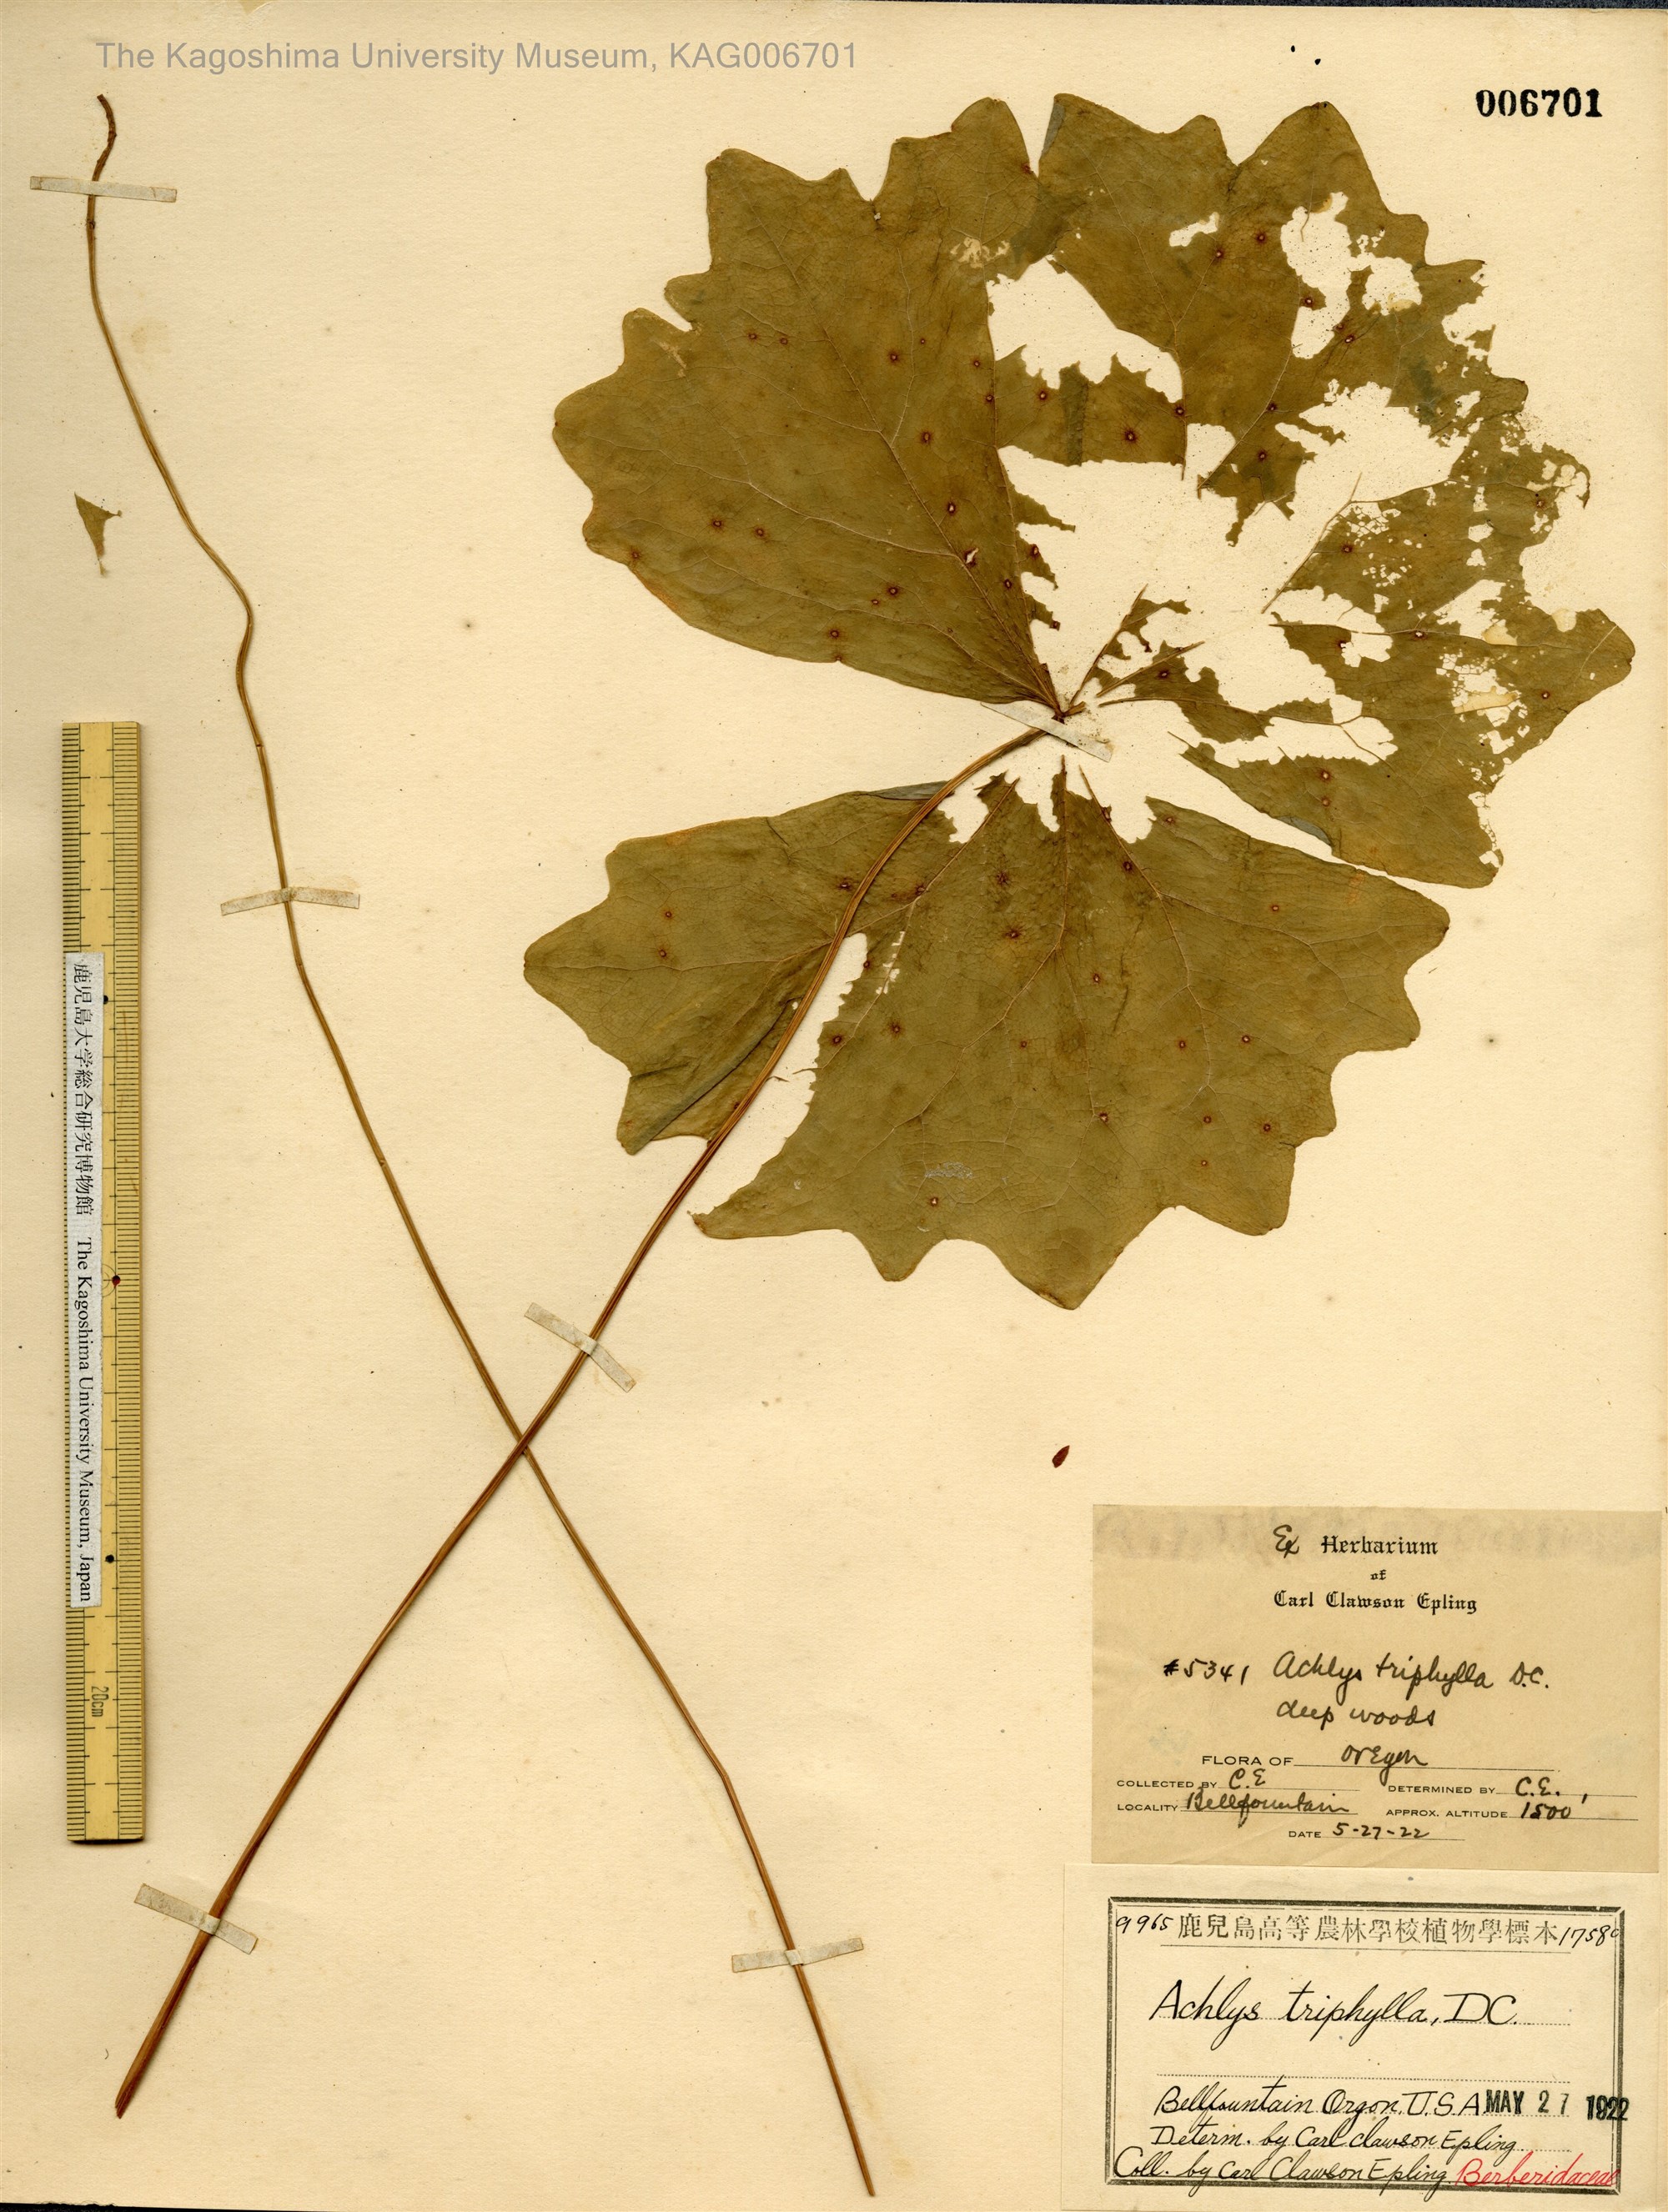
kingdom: Plantae
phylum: Tracheophyta
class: Magnoliopsida
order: Ranunculales
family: Berberidaceae
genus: Achlys
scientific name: Achlys triphylla
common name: Vanilla-leaf
